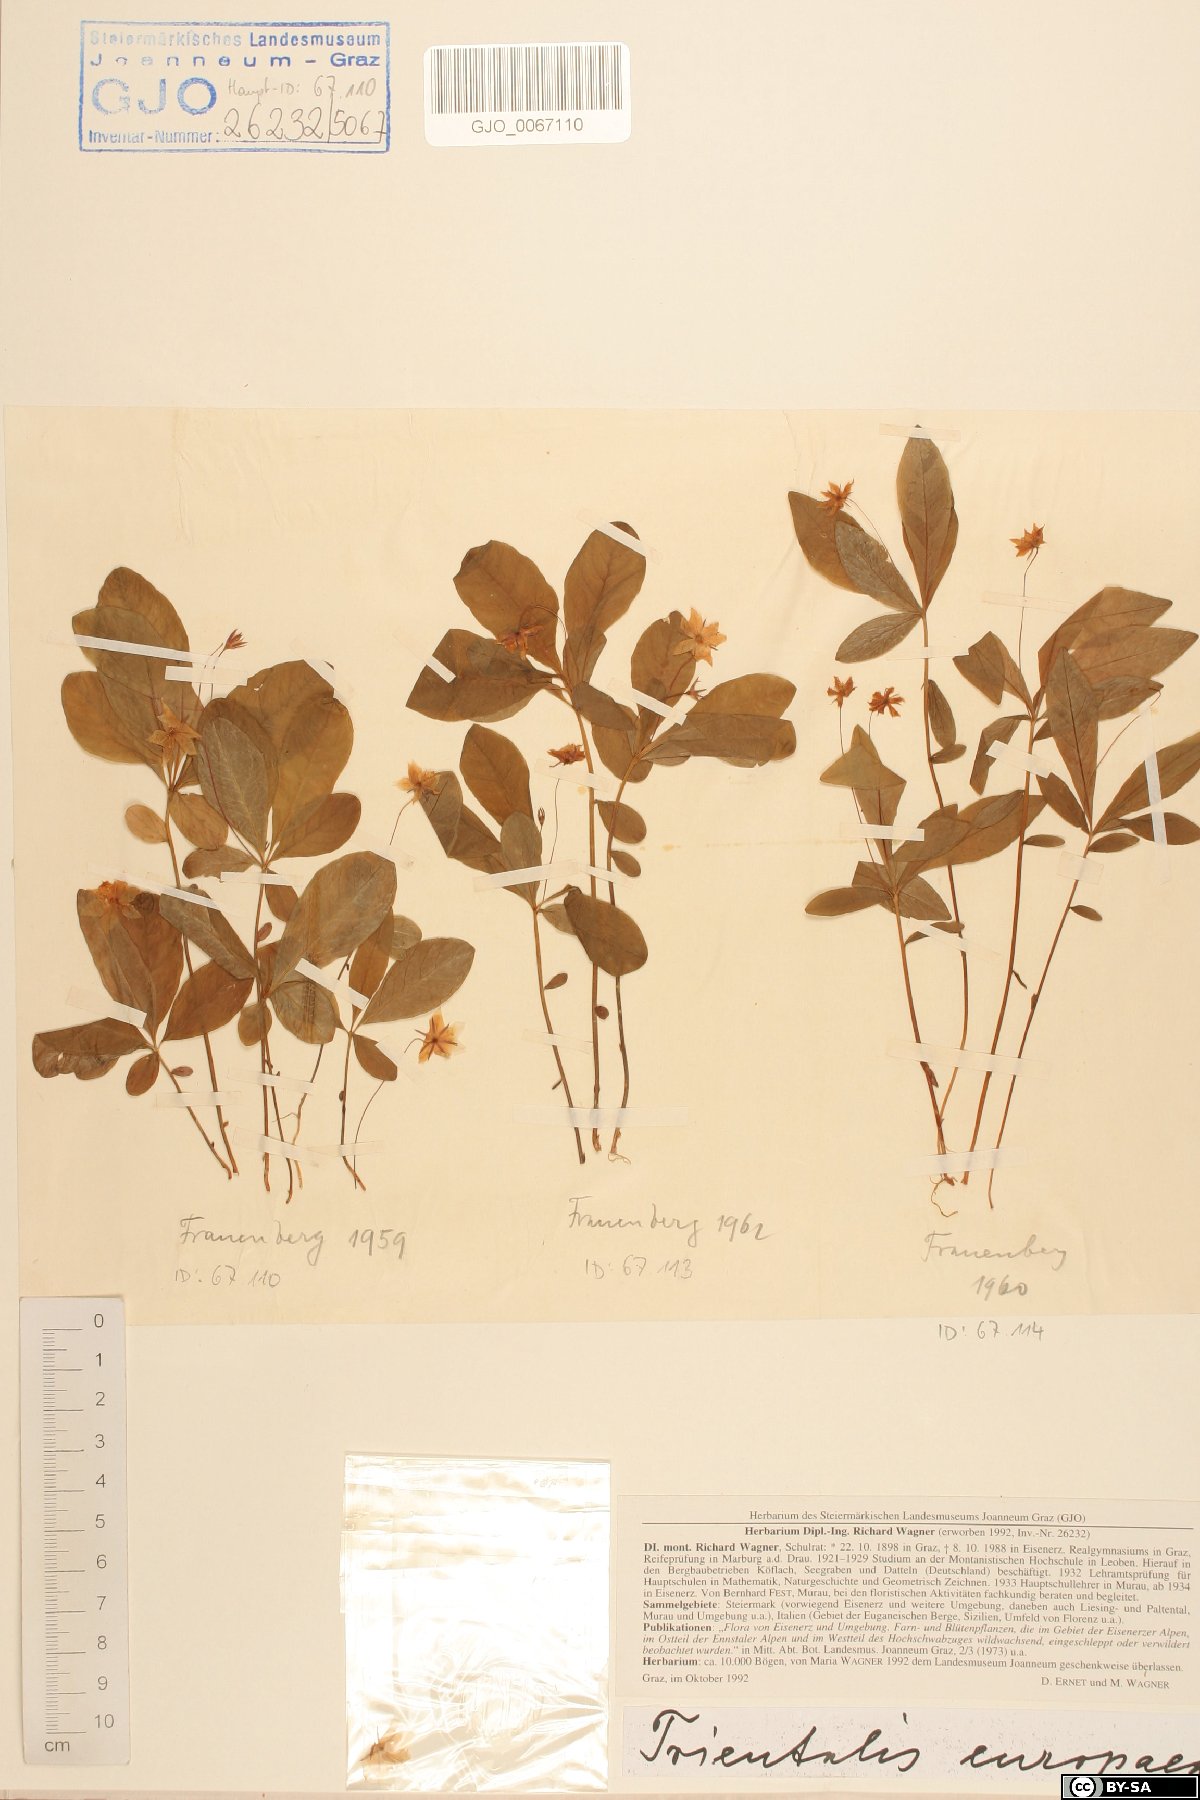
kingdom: Plantae
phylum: Tracheophyta
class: Magnoliopsida
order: Ericales
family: Primulaceae
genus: Lysimachia
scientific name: Lysimachia europaea
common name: Arctic starflower
